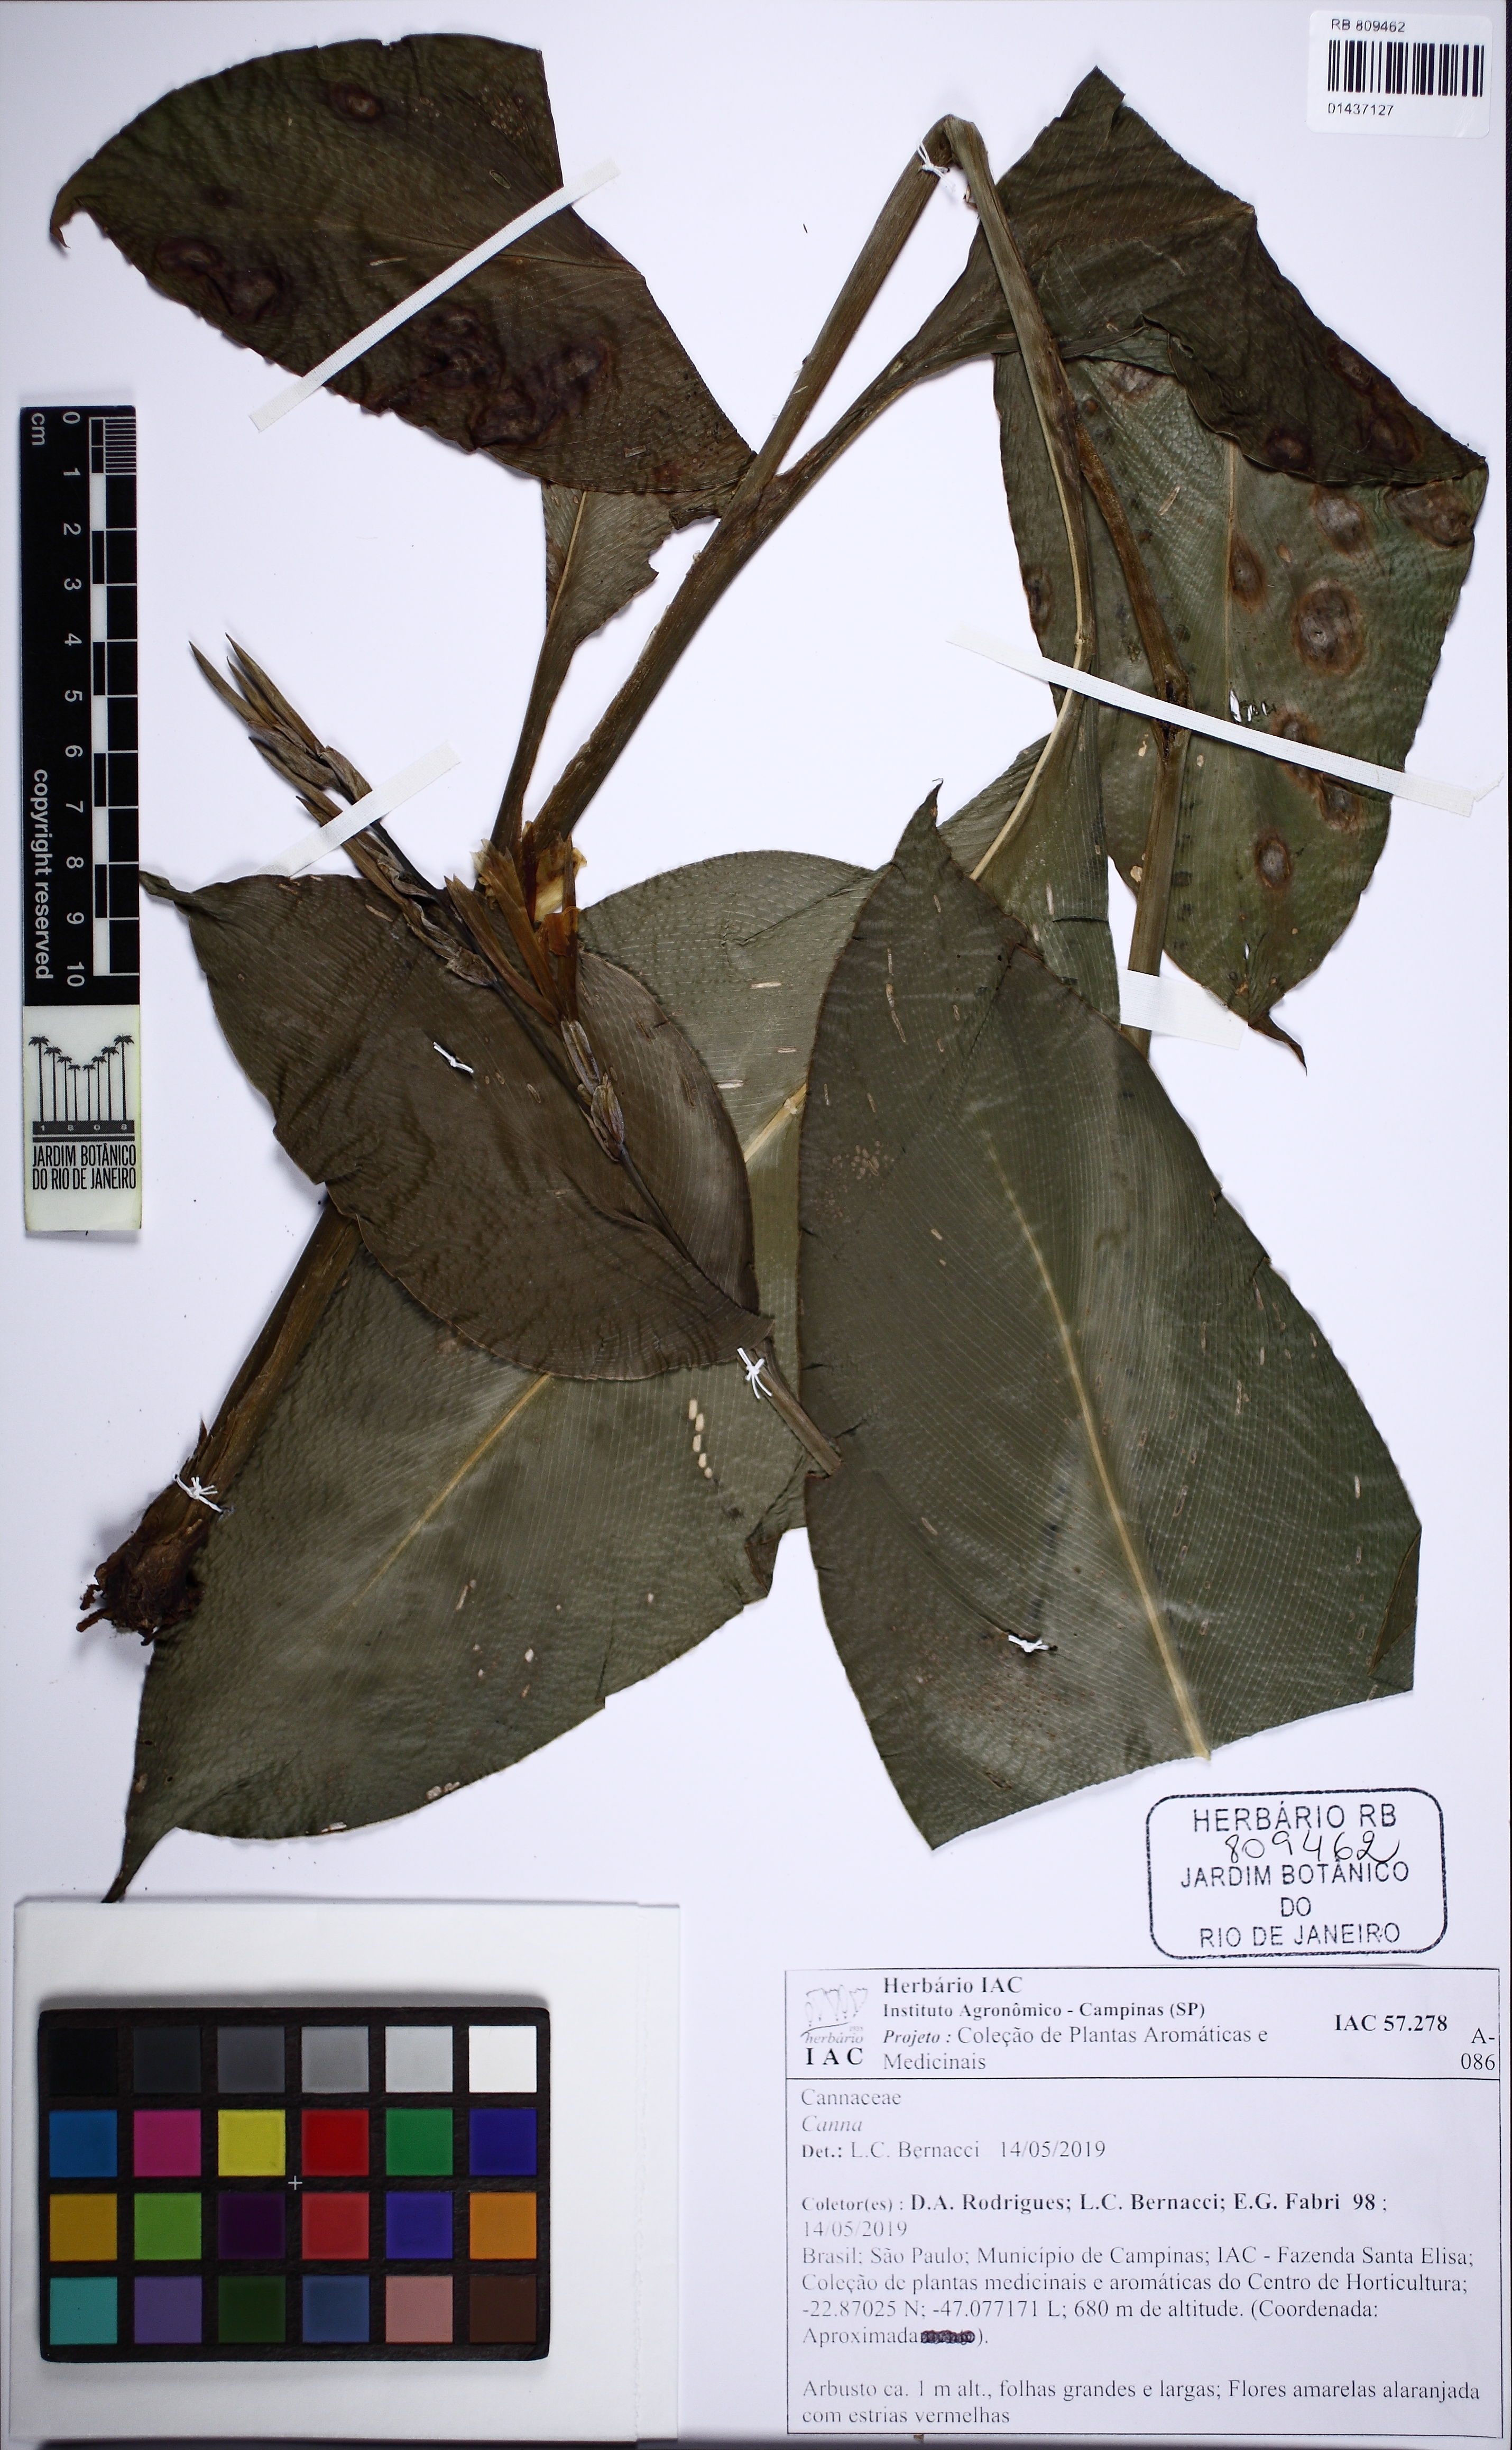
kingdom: Plantae
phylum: Tracheophyta
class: Magnoliopsida
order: Rosales
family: Cannabaceae
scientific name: Cannabaceae
